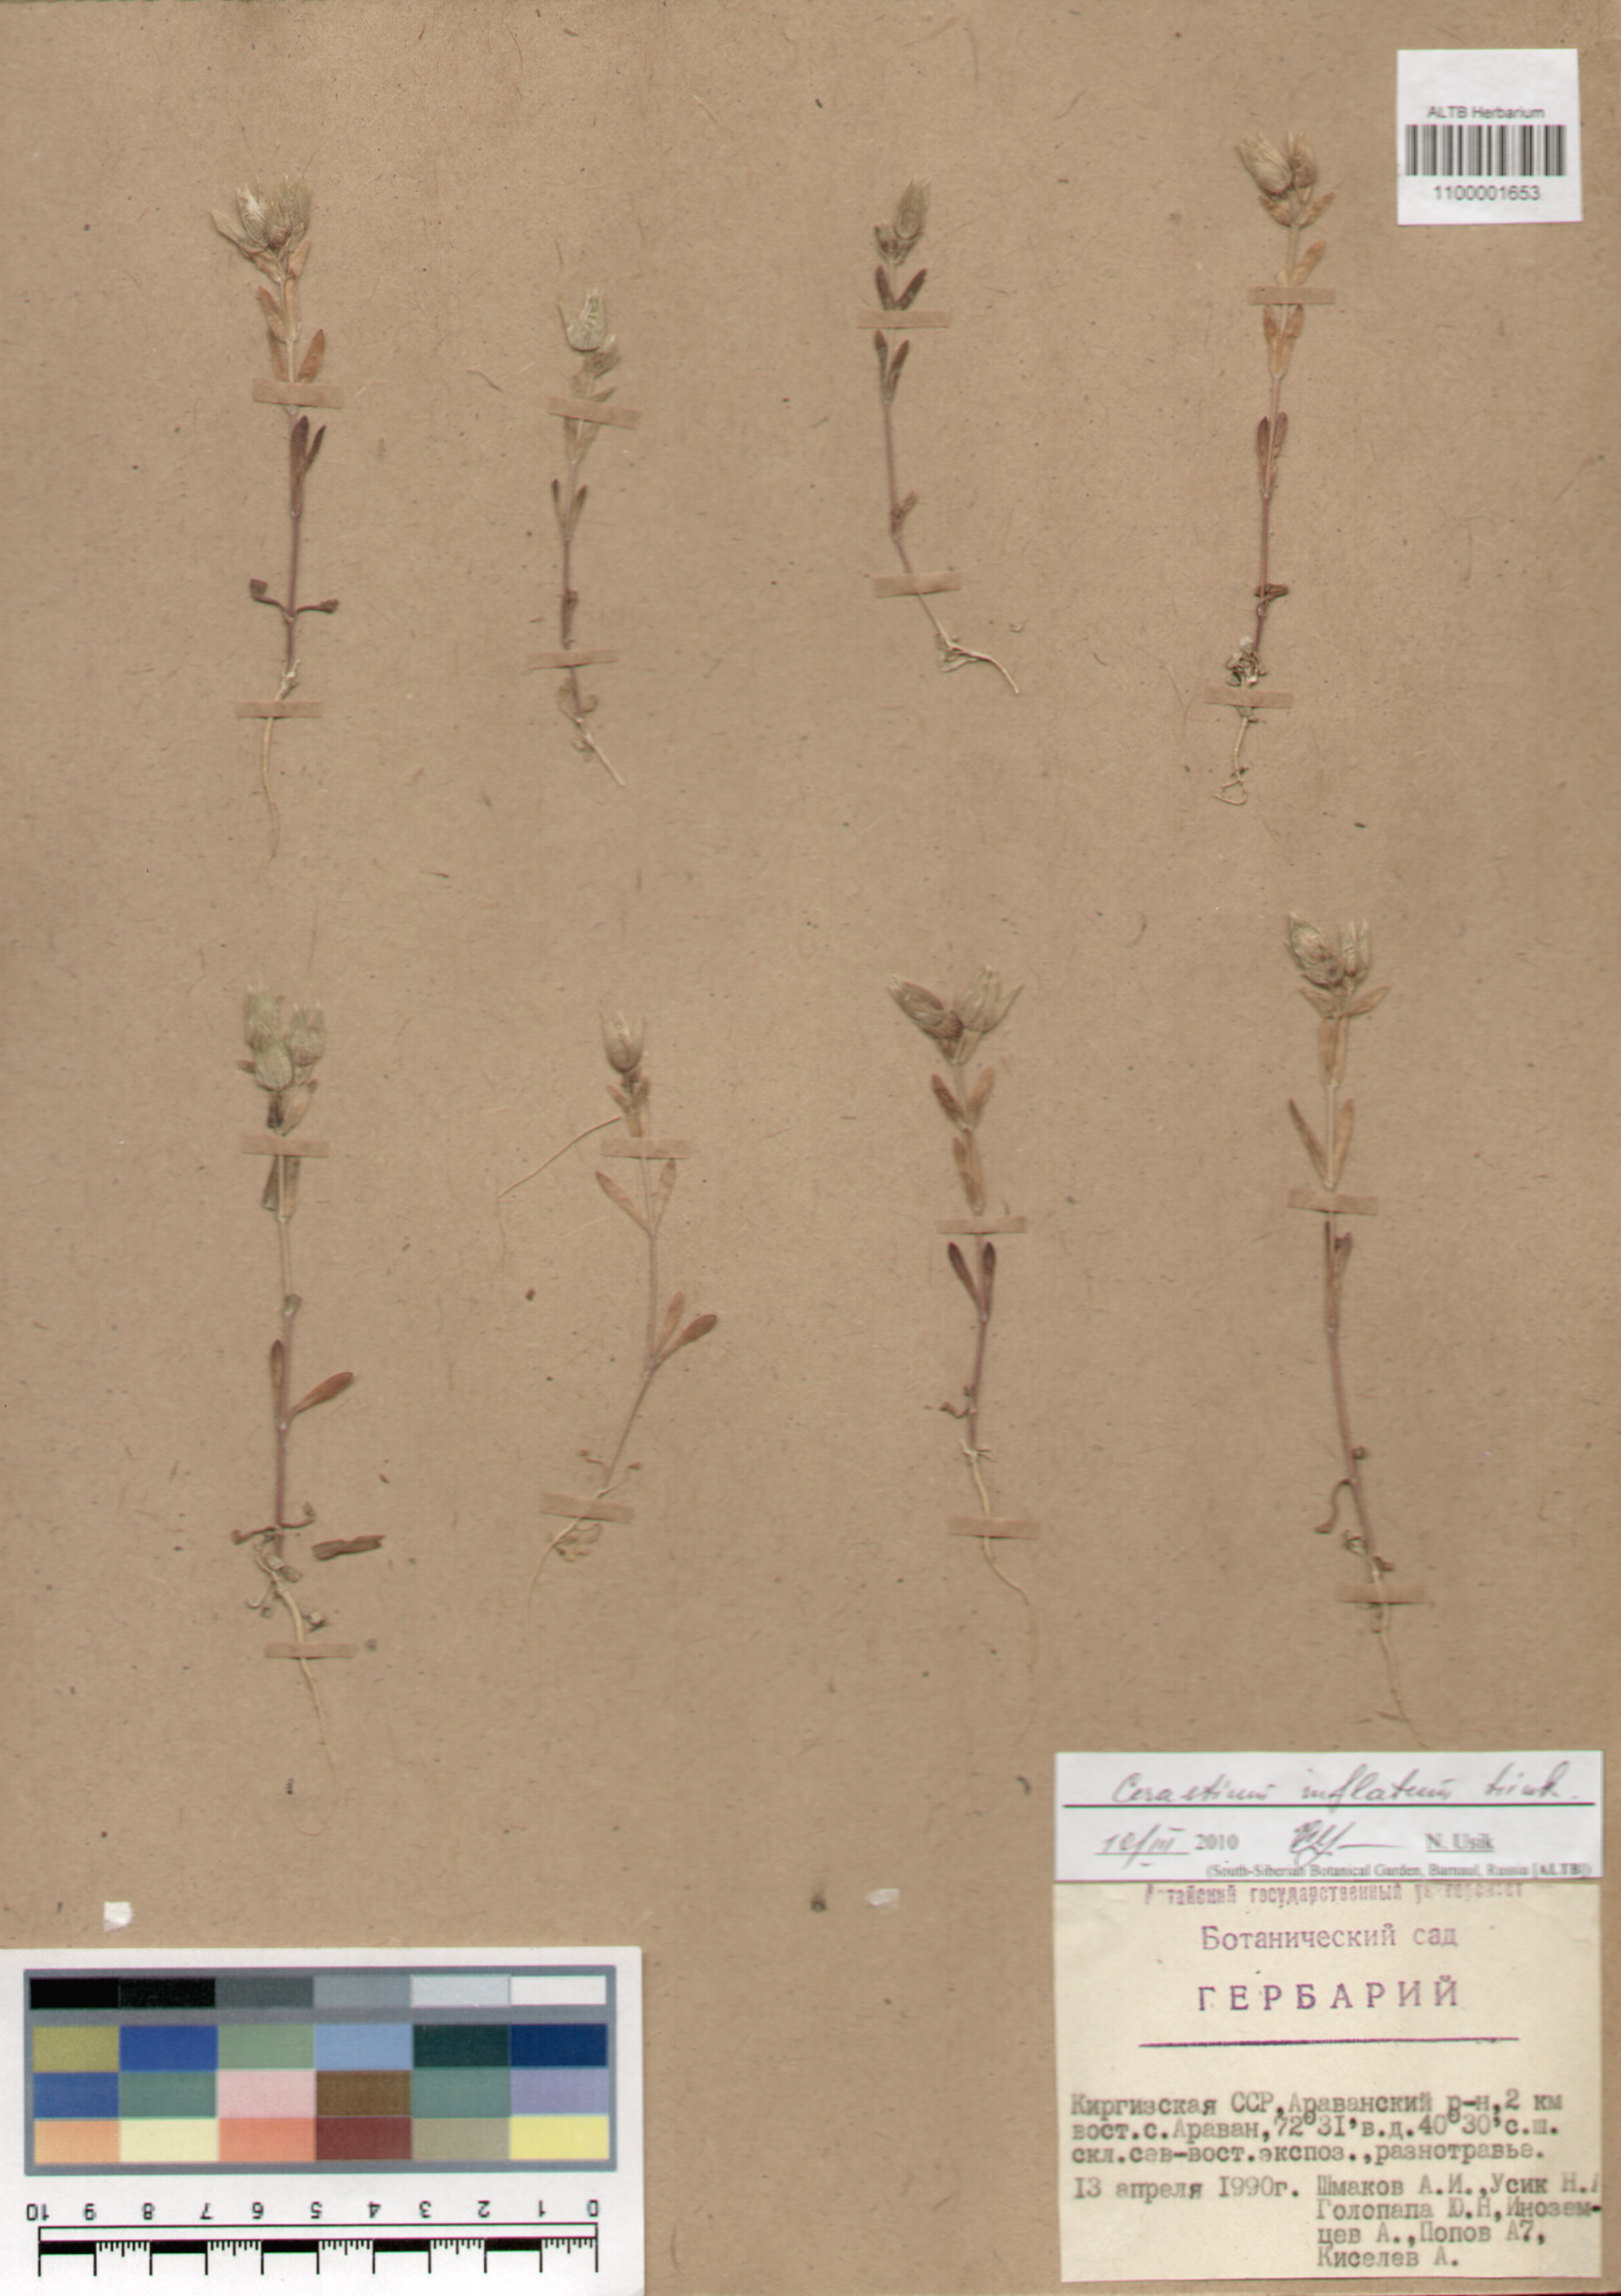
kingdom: Plantae
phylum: Tracheophyta
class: Magnoliopsida
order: Caryophyllales
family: Caryophyllaceae
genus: Cerastium
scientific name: Cerastium inflatum
